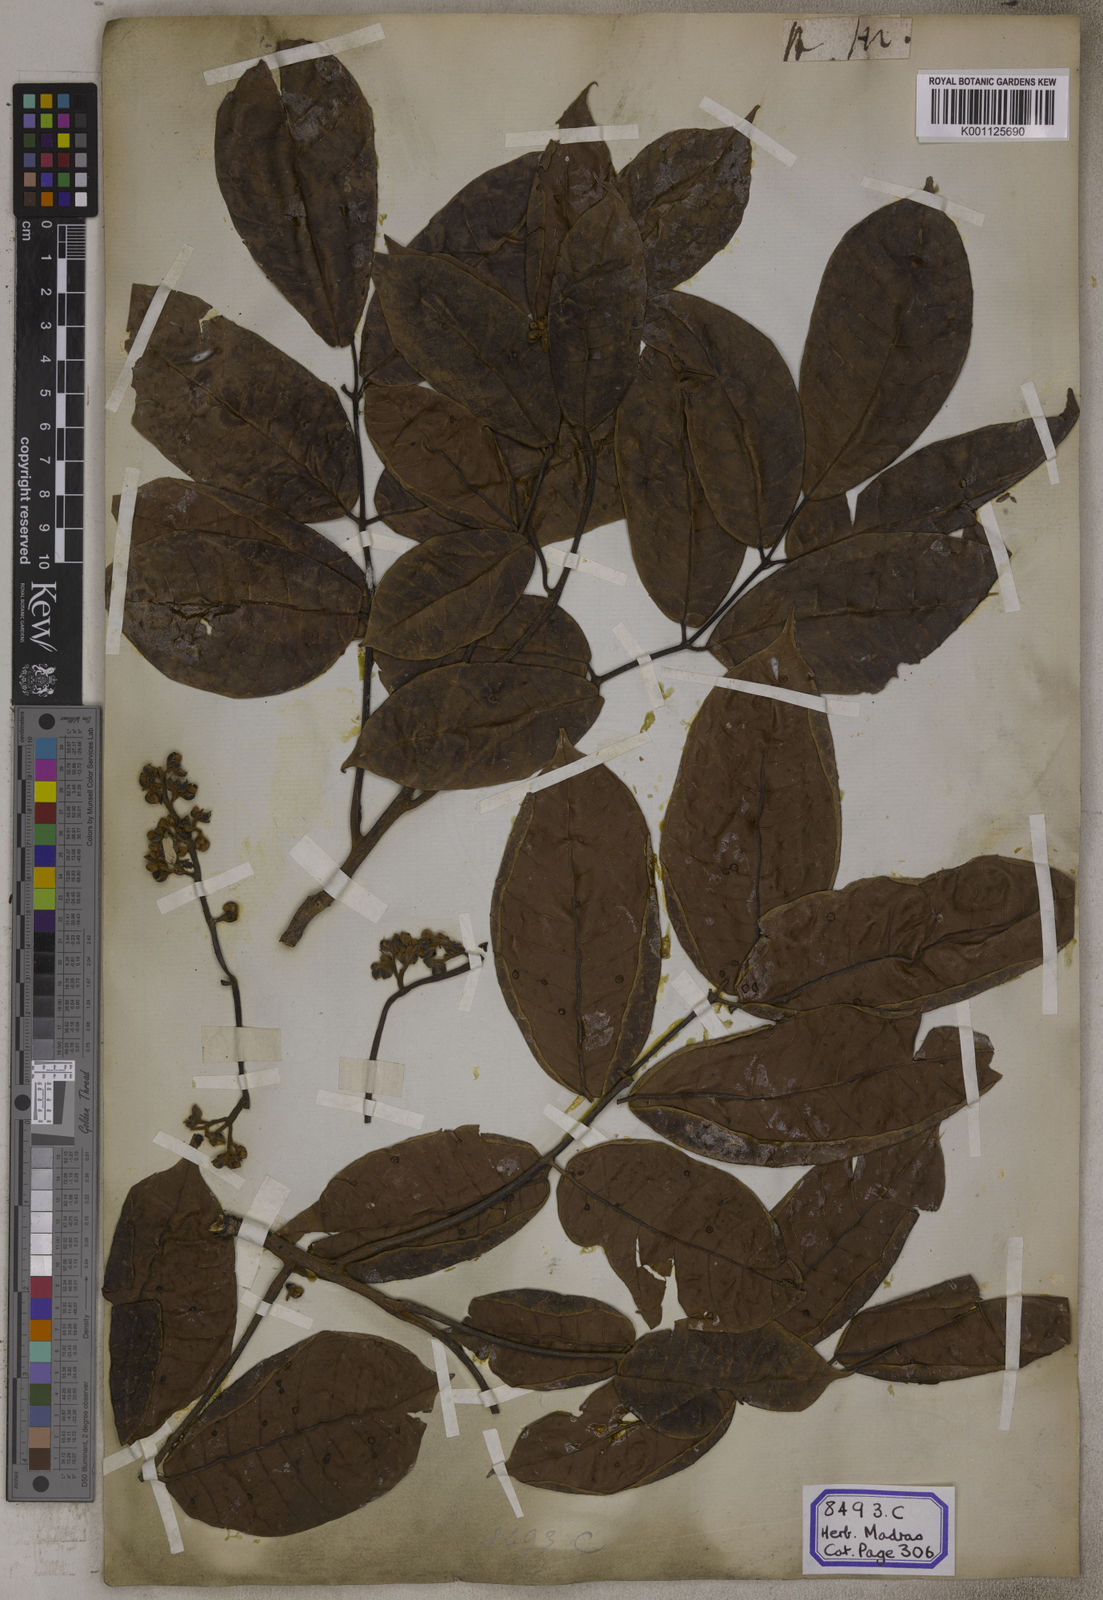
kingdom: Plantae
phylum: Tracheophyta
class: Magnoliopsida
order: Sapindales
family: Burseraceae
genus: Canarium
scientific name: Canarium indicum
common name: Canarium-nut
